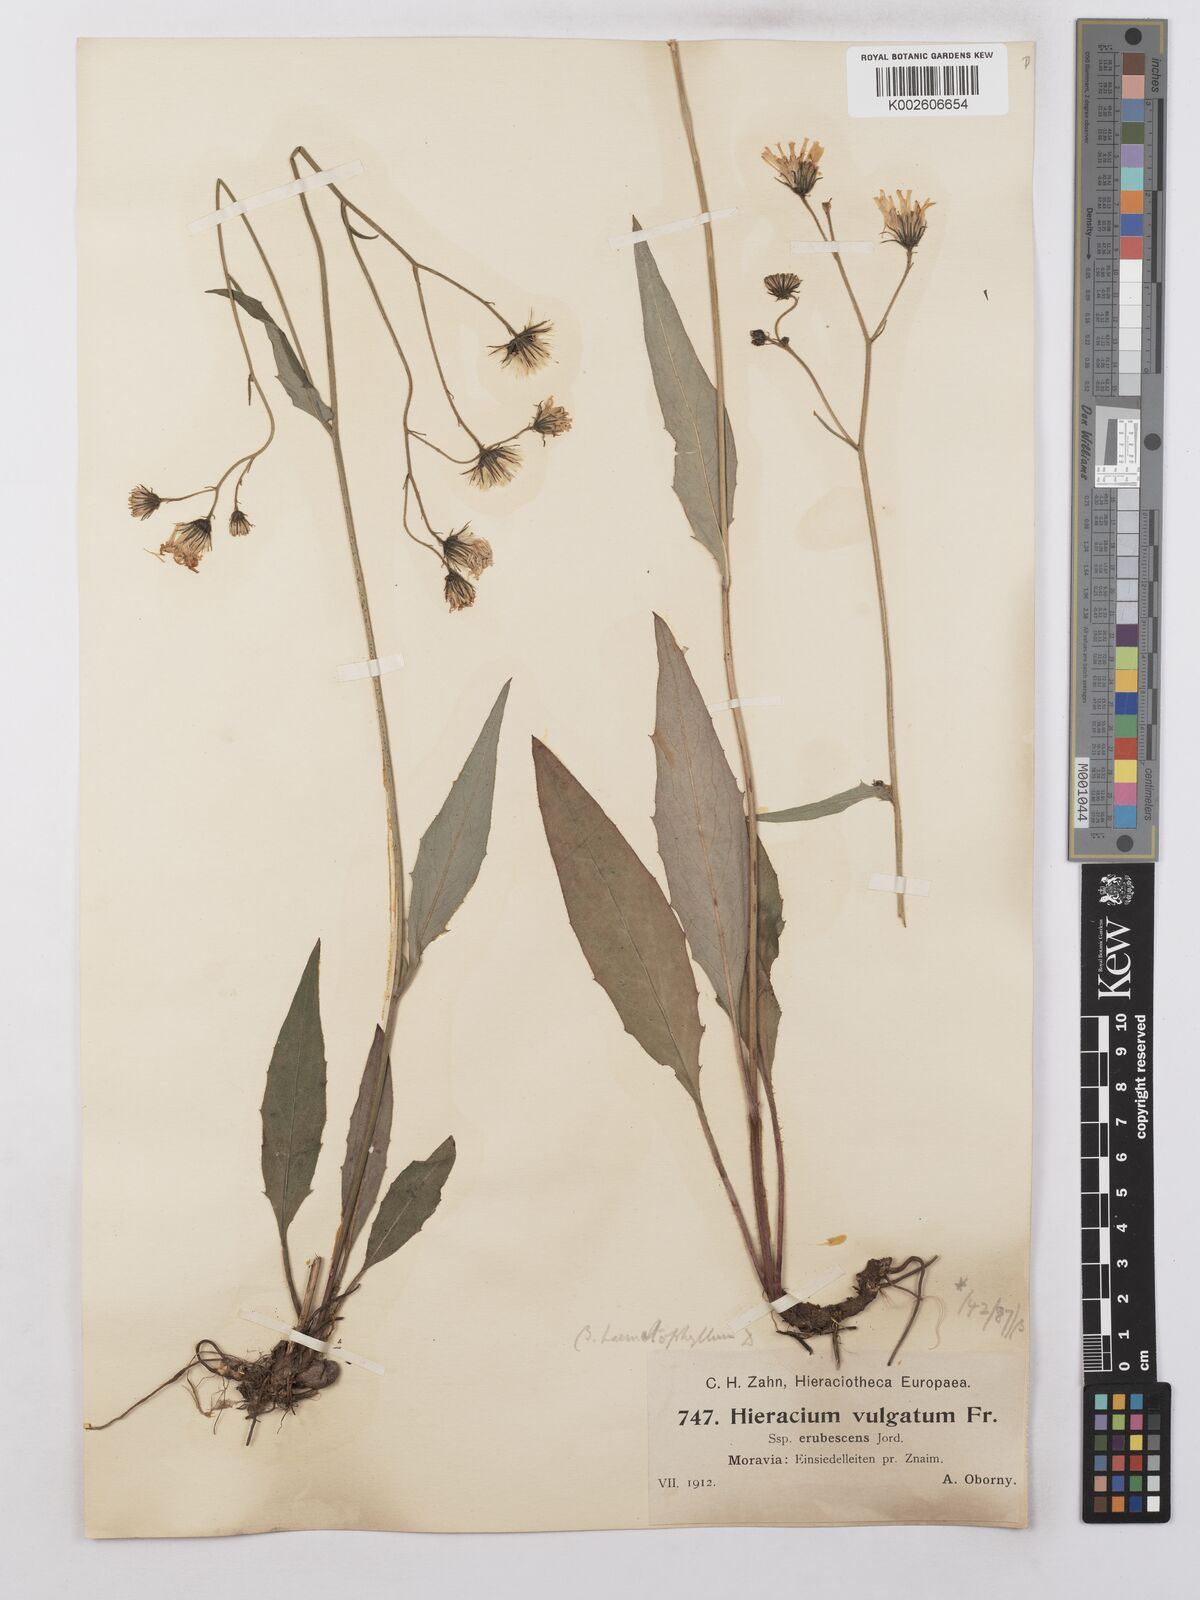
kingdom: Plantae
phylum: Tracheophyta
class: Magnoliopsida
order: Asterales
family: Asteraceae
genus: Hieracium
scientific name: Hieracium lepidulum
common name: Irregular-toothed hawkweed
